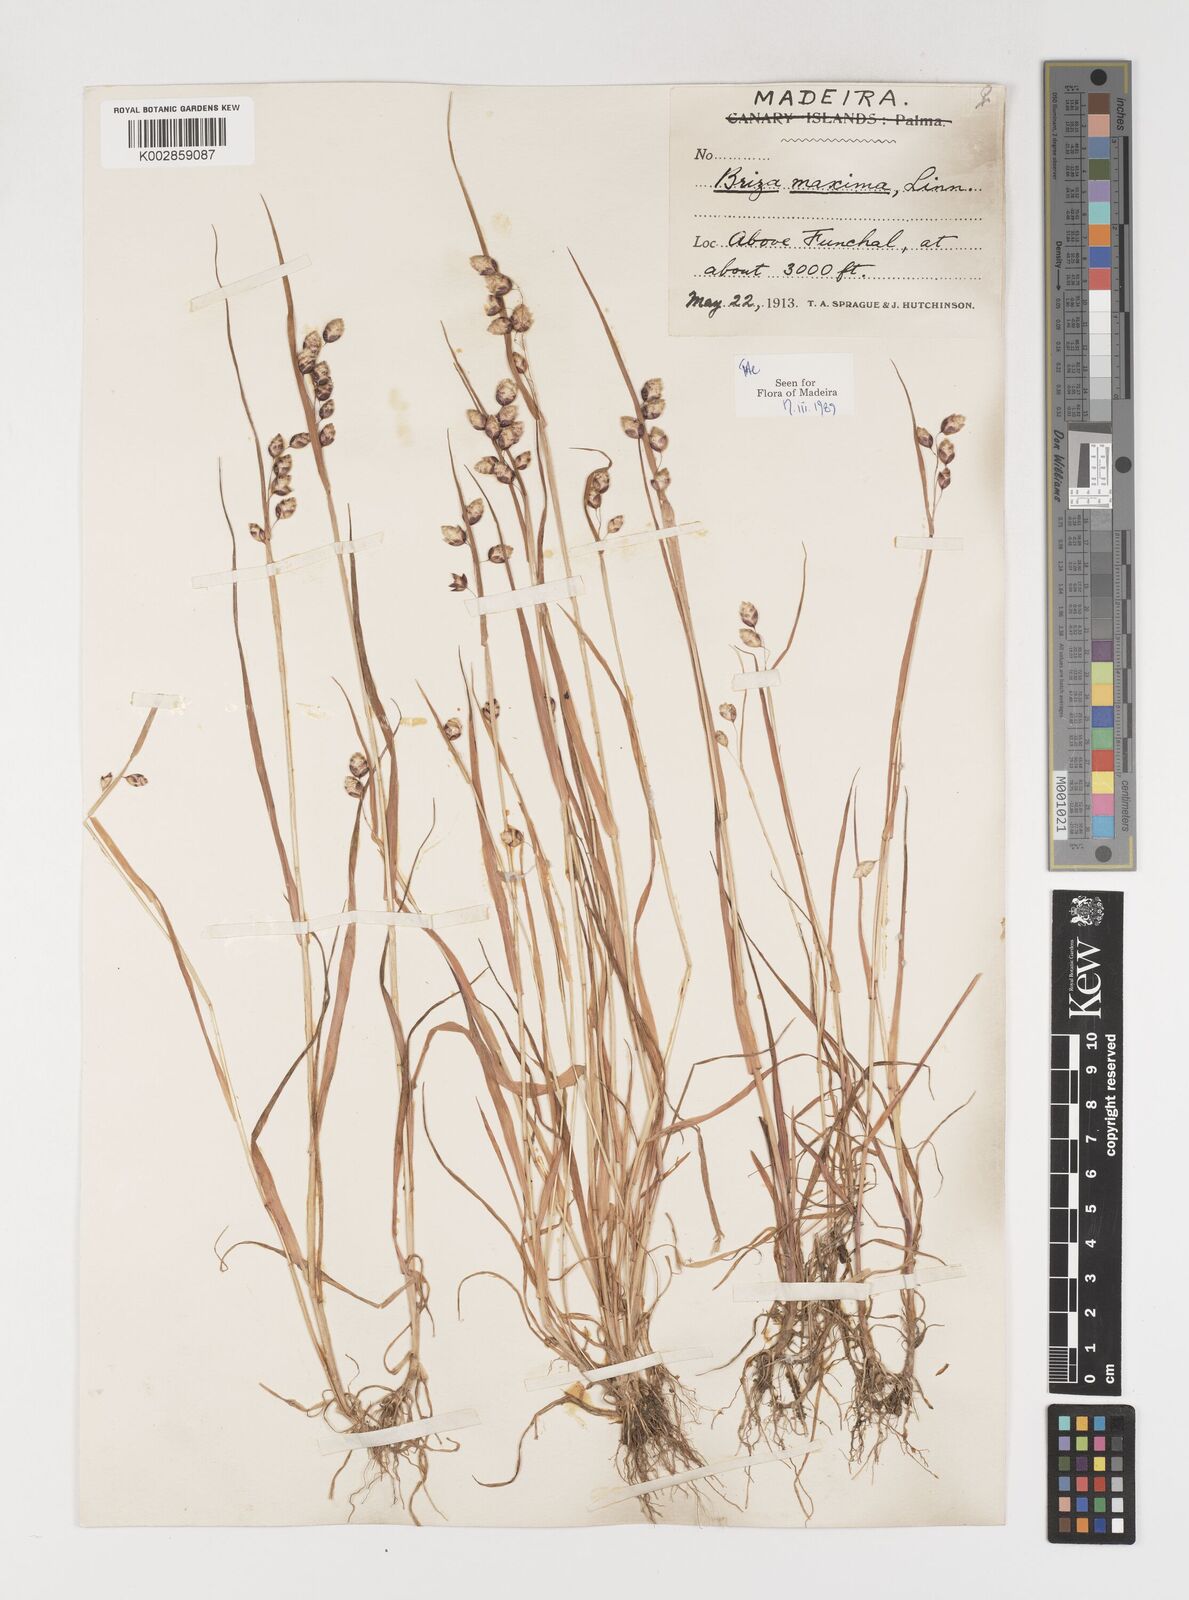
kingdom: Plantae
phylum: Tracheophyta
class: Liliopsida
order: Poales
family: Poaceae
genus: Briza
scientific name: Briza maxima
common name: Big quakinggrass
